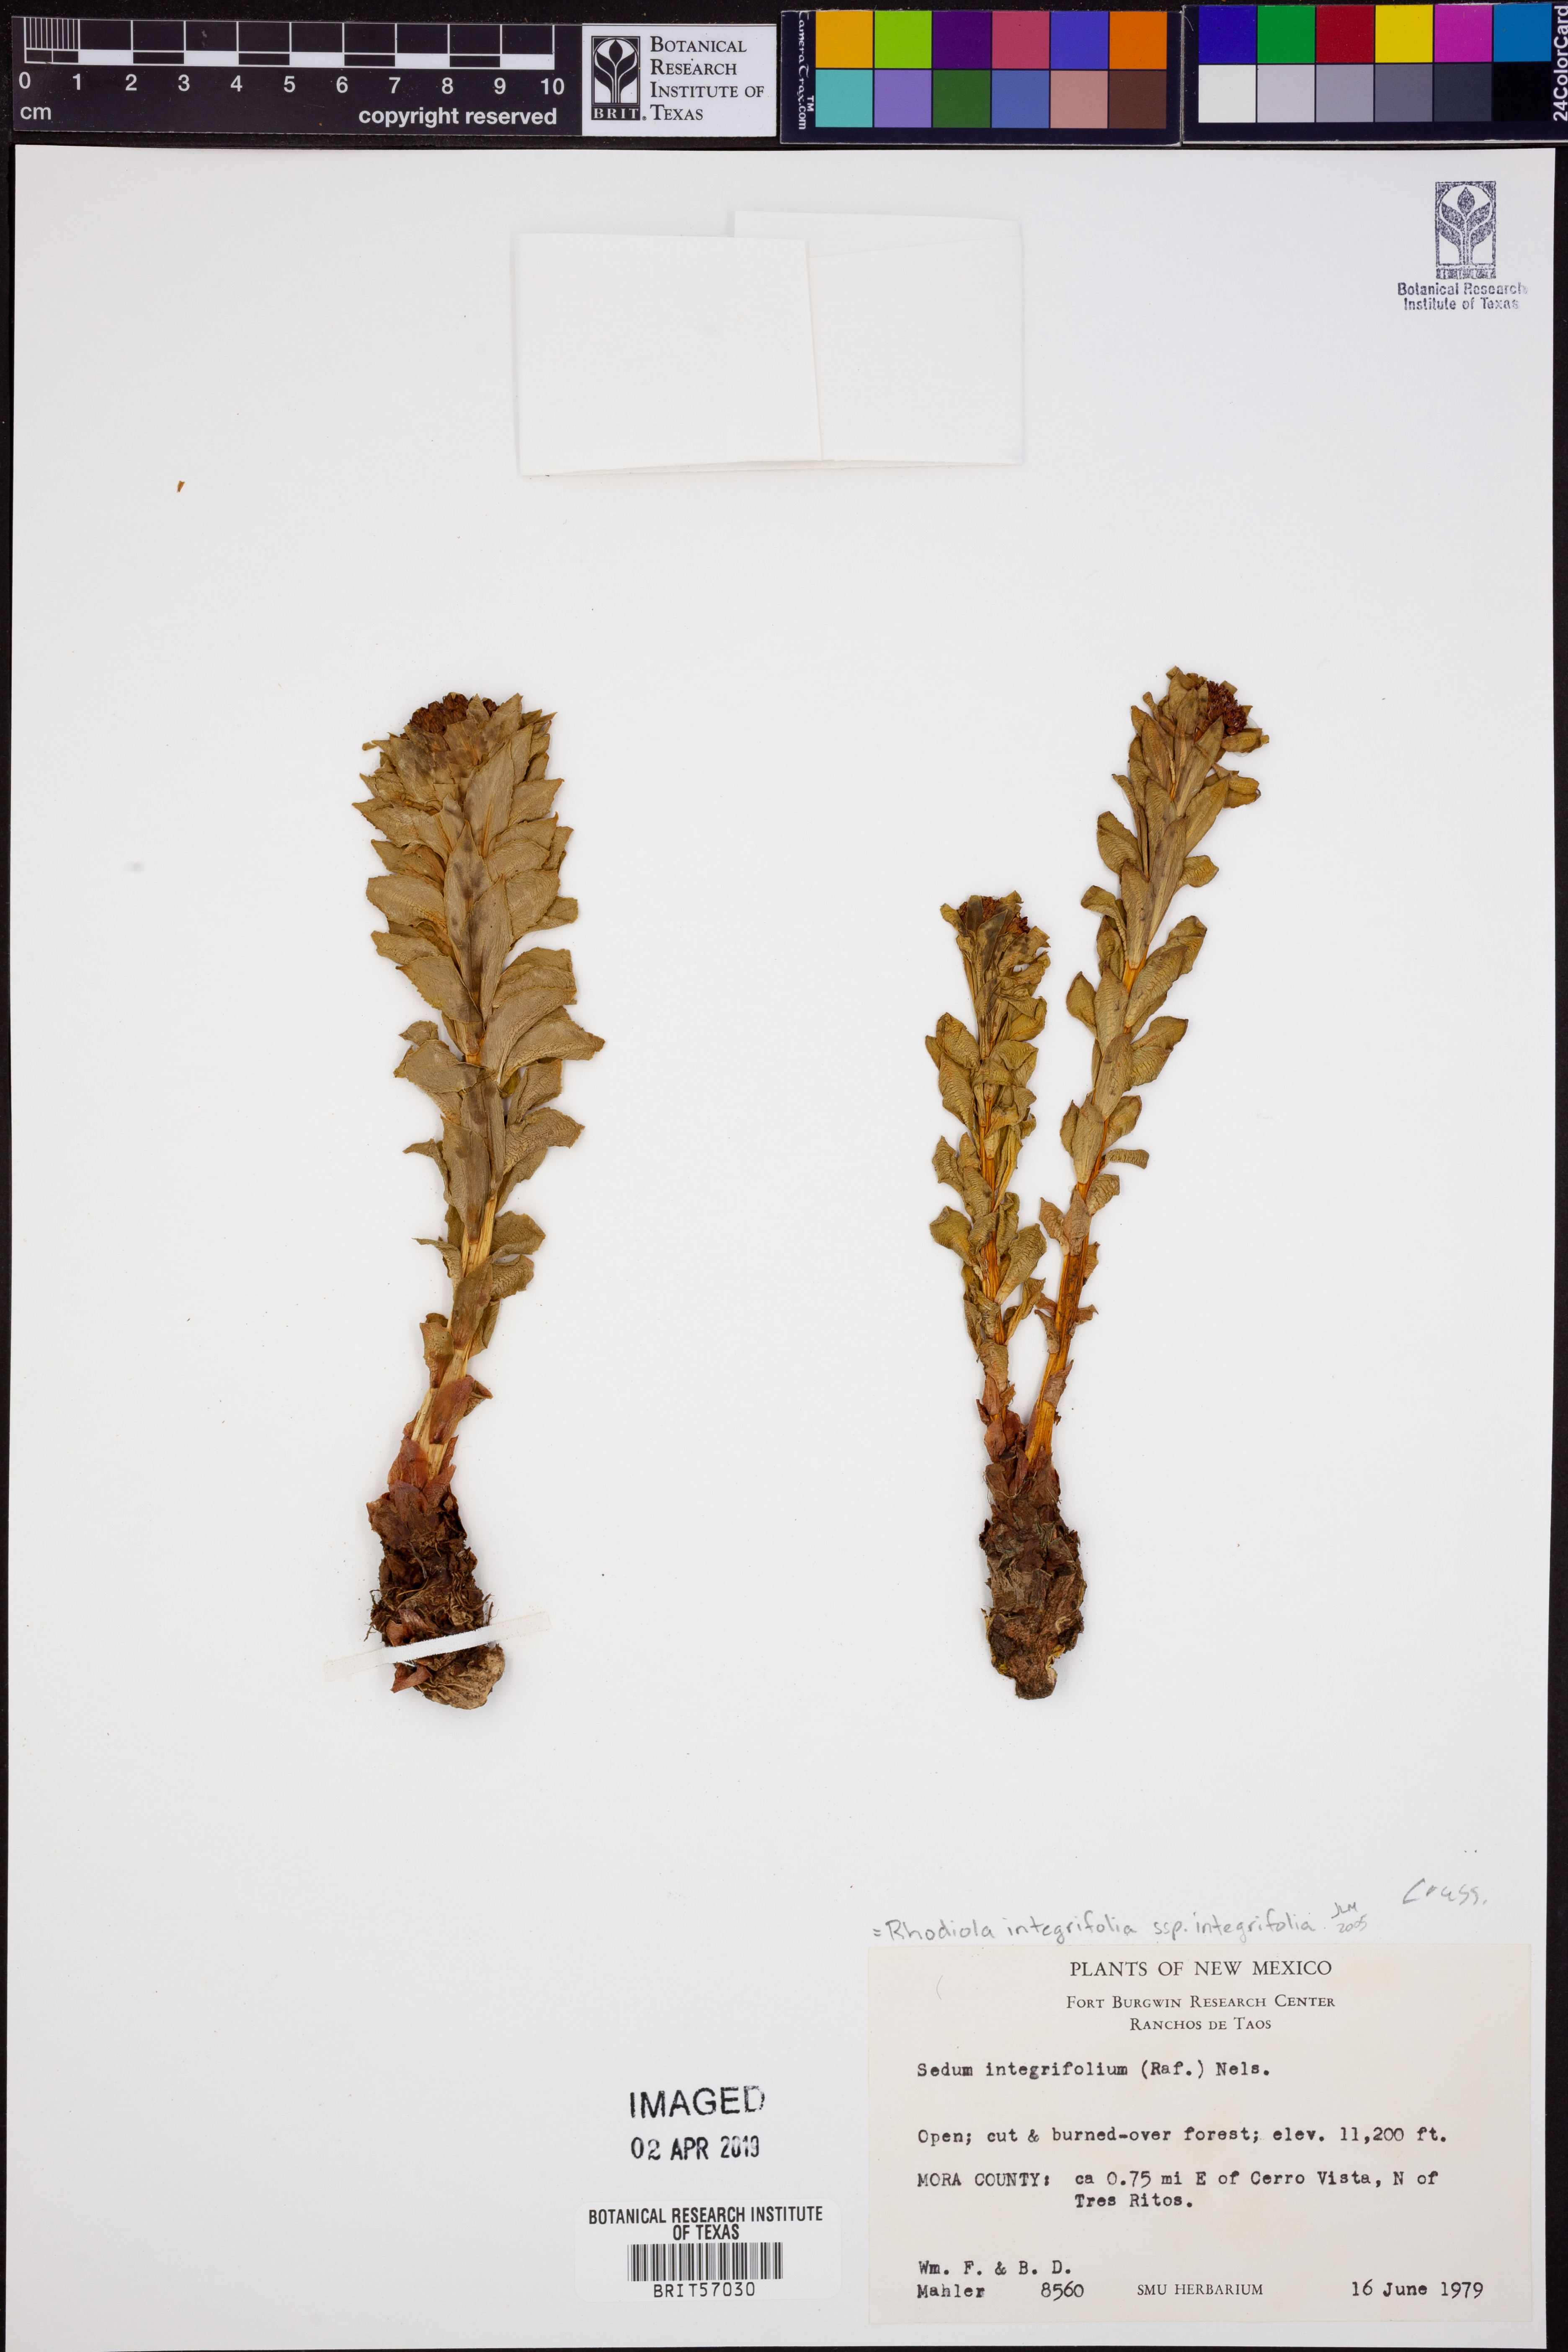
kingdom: Plantae
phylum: Tracheophyta
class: Magnoliopsida
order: Saxifragales
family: Crassulaceae
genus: Rhodiola
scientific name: Rhodiola integrifolia
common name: Western roseroot
